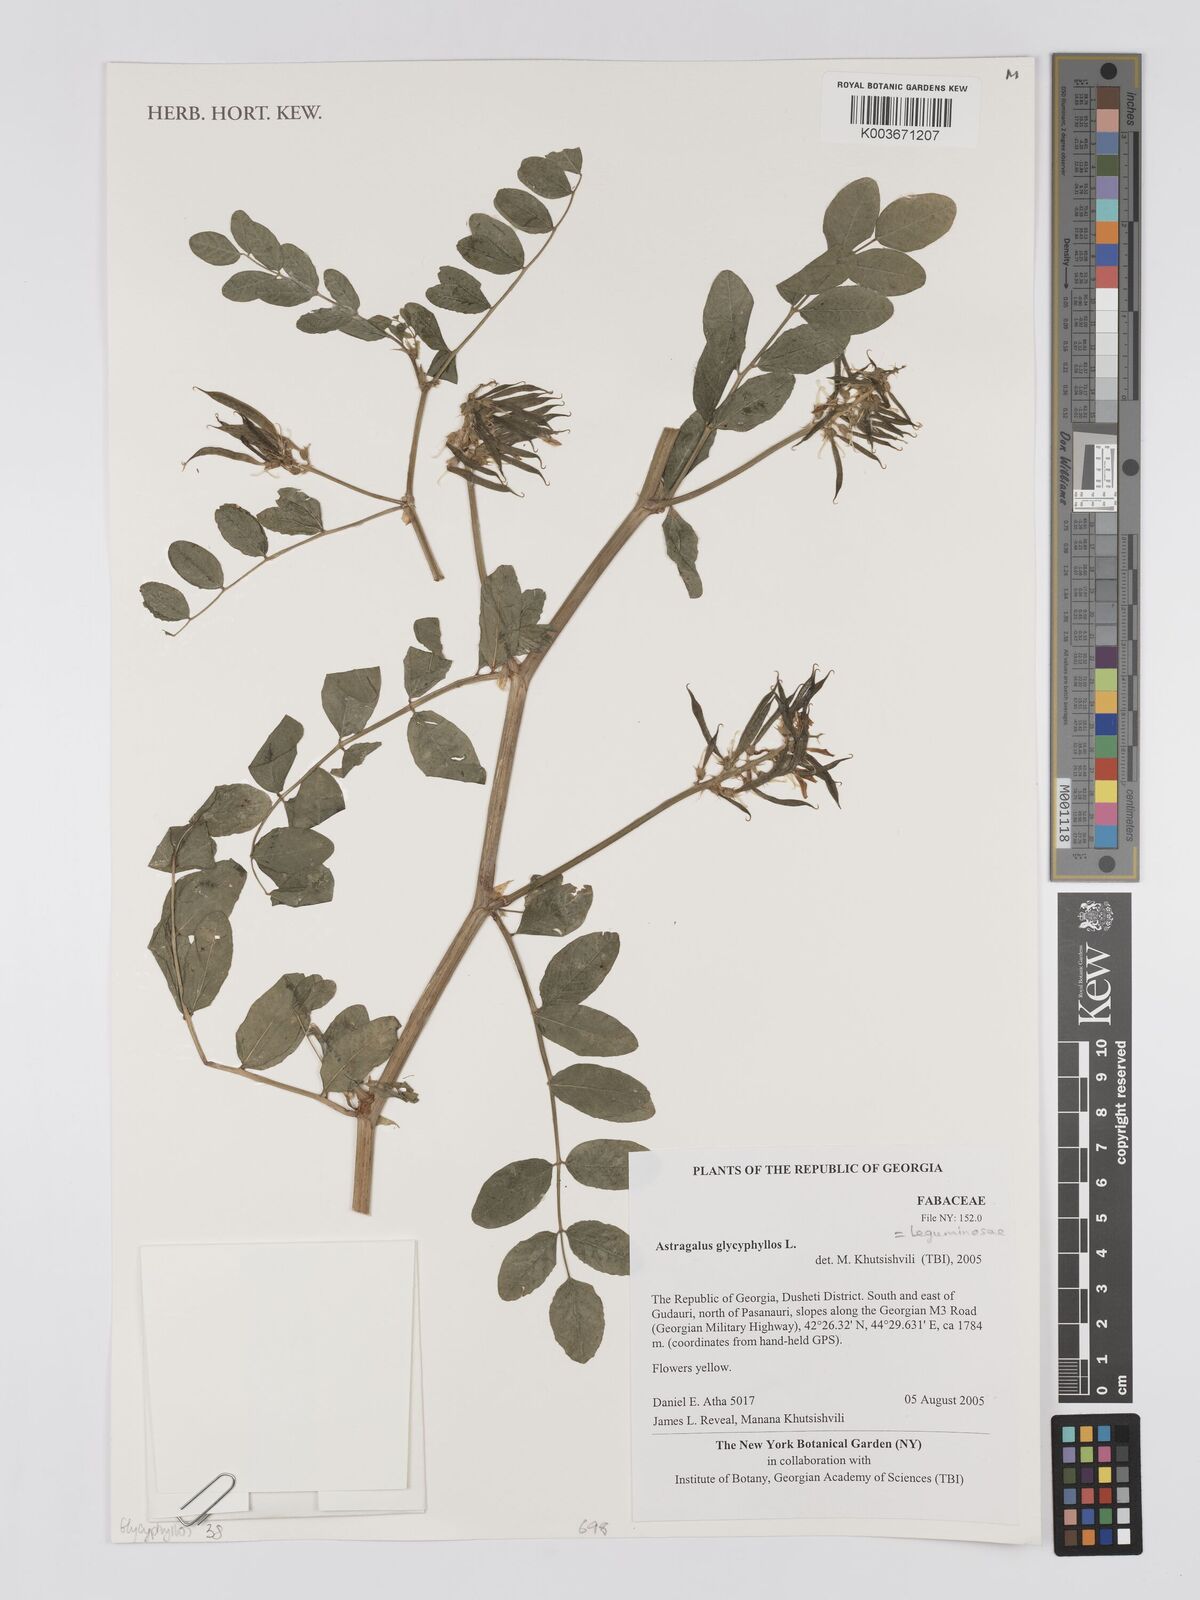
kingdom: Plantae
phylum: Tracheophyta
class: Magnoliopsida
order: Fabales
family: Fabaceae
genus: Astragalus
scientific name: Astragalus glycyphyllos
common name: Wild liquorice
